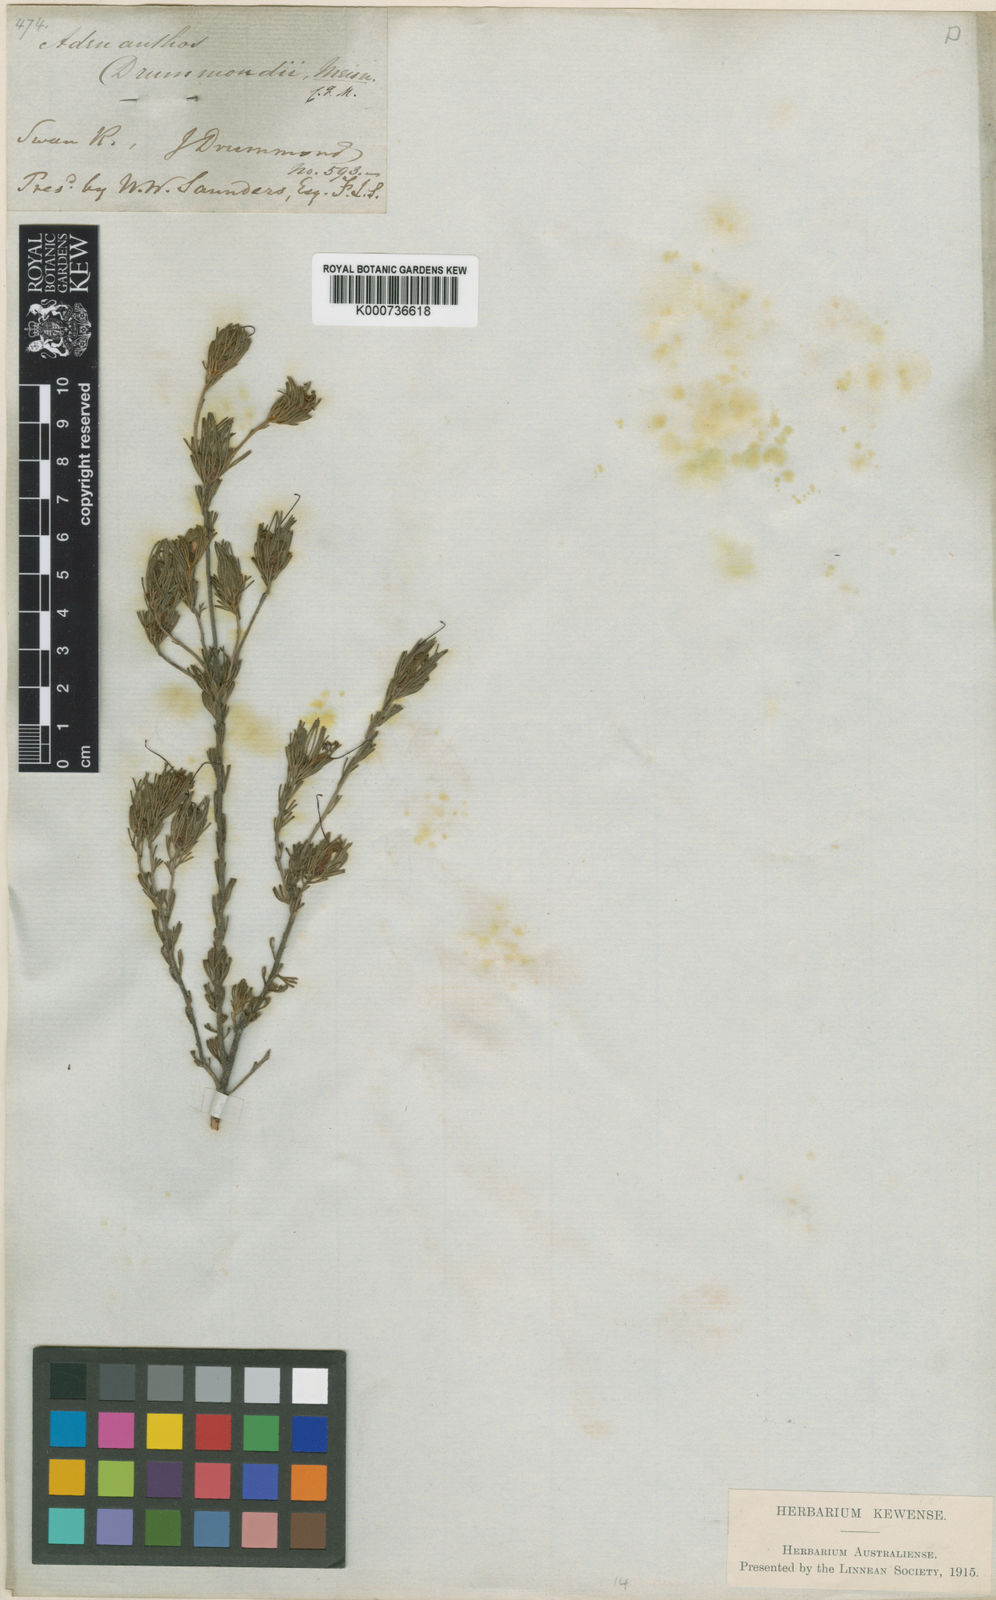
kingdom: Plantae
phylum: Tracheophyta
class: Magnoliopsida
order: Proteales
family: Proteaceae
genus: Adenanthos
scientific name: Adenanthos drummondii
